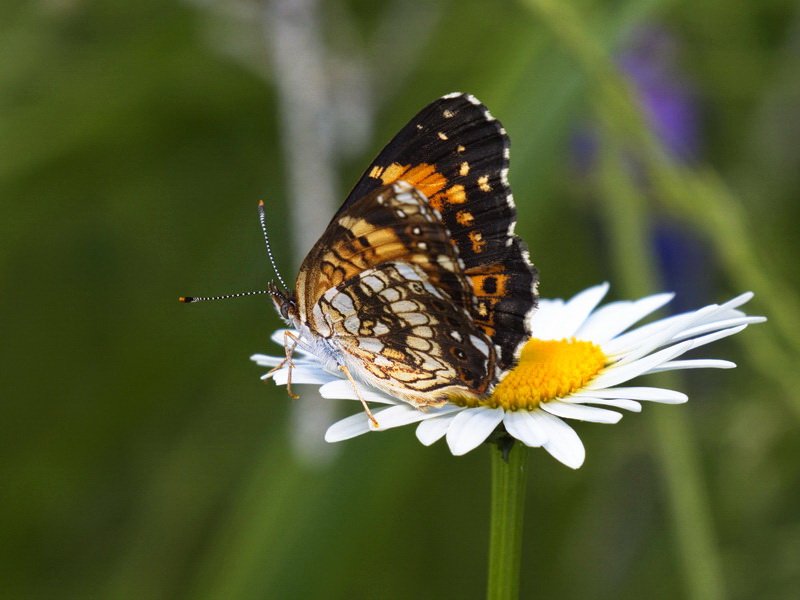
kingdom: Animalia
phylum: Arthropoda
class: Insecta
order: Lepidoptera
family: Nymphalidae
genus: Chlosyne
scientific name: Chlosyne nycteis
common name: Silvery Checkerspot
